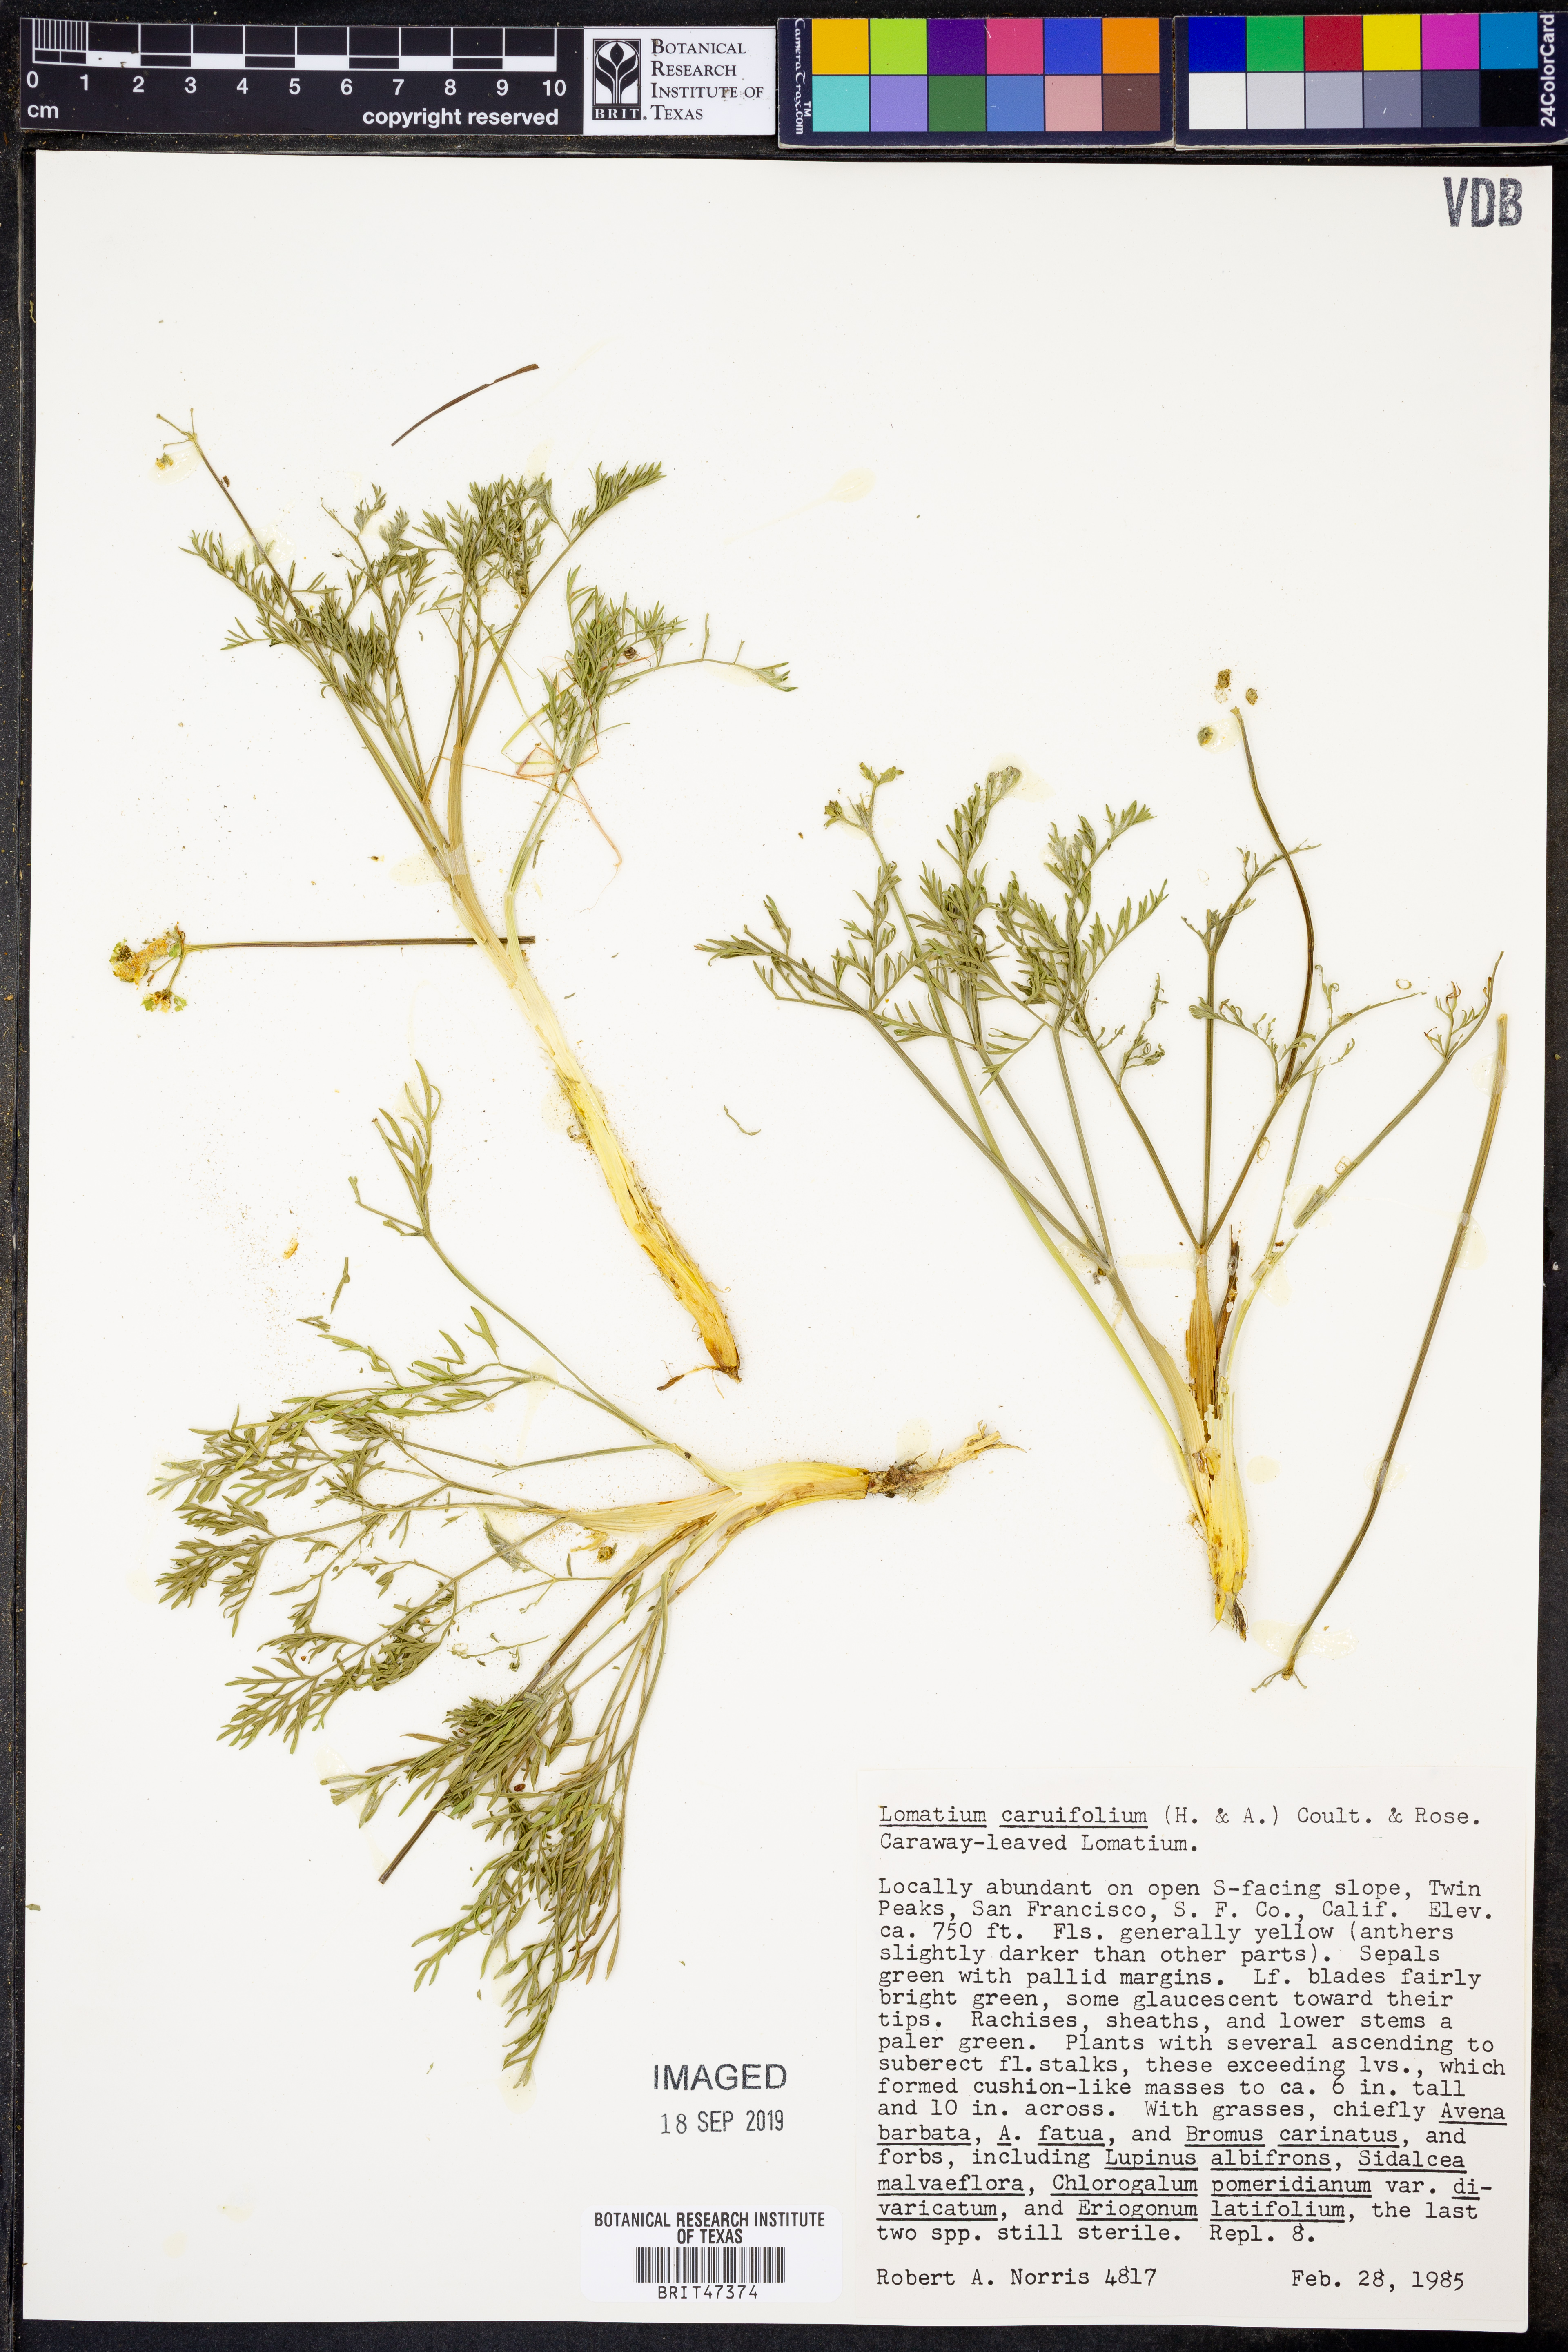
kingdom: Plantae
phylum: Tracheophyta
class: Magnoliopsida
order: Apiales
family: Apiaceae
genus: Lomatium
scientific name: Lomatium caruifolium
